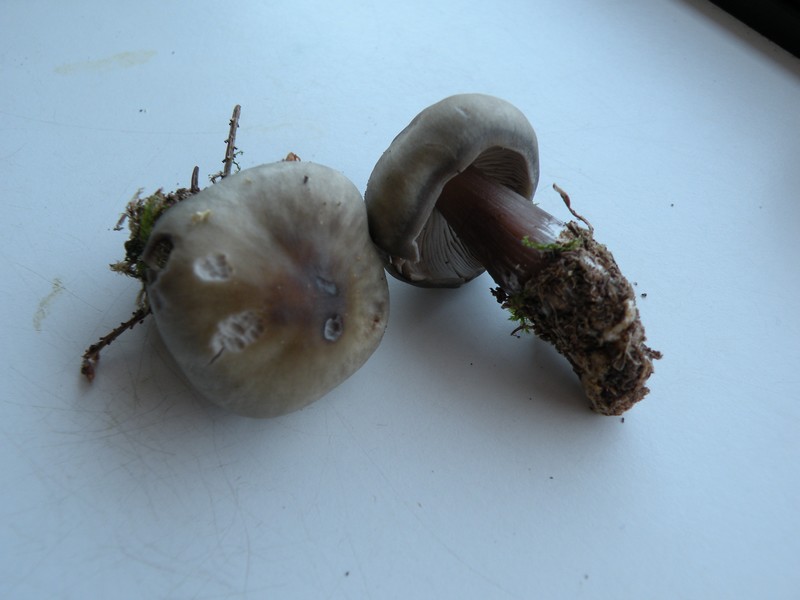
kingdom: Fungi
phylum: Basidiomycota
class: Agaricomycetes
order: Agaricales
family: Omphalotaceae
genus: Rhodocollybia
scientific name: Rhodocollybia asema
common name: horngrå fladhat
